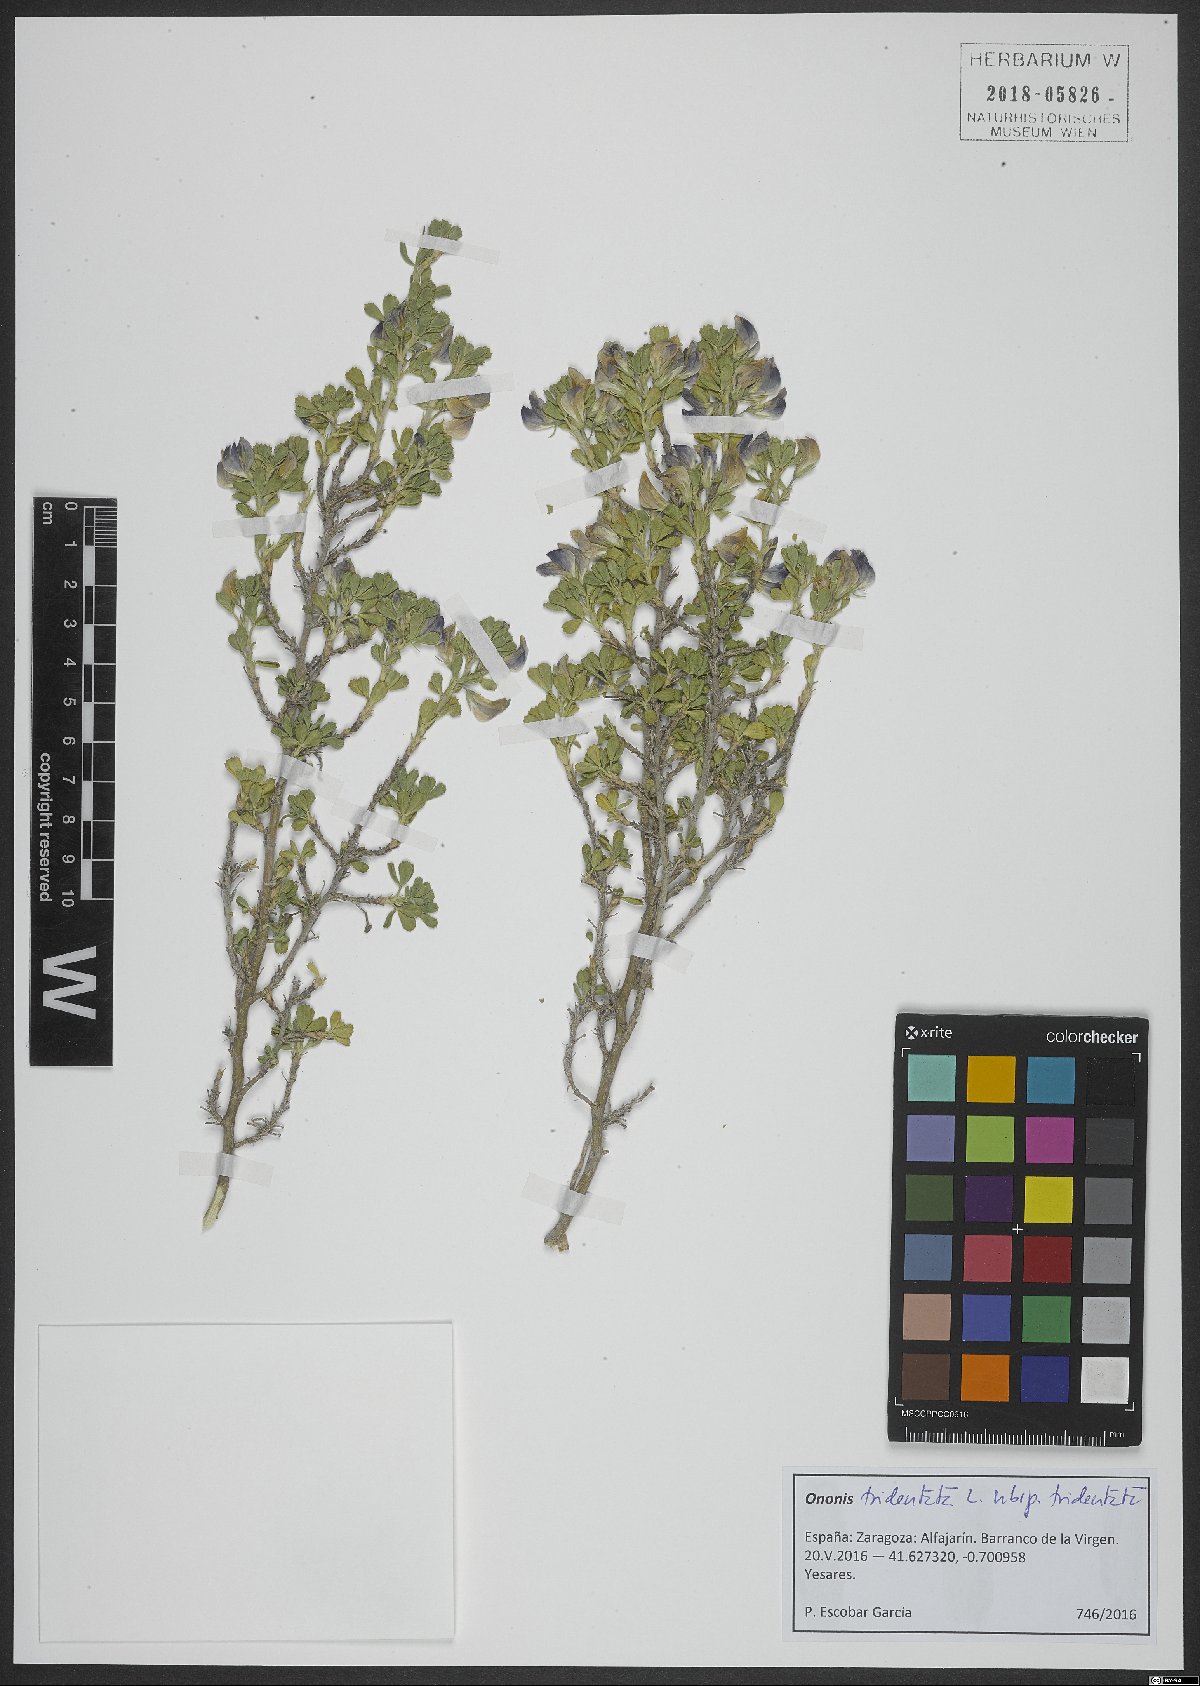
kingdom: Plantae
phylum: Tracheophyta
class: Magnoliopsida
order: Fabales
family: Fabaceae
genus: Ononis
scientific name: Ononis tridentata
